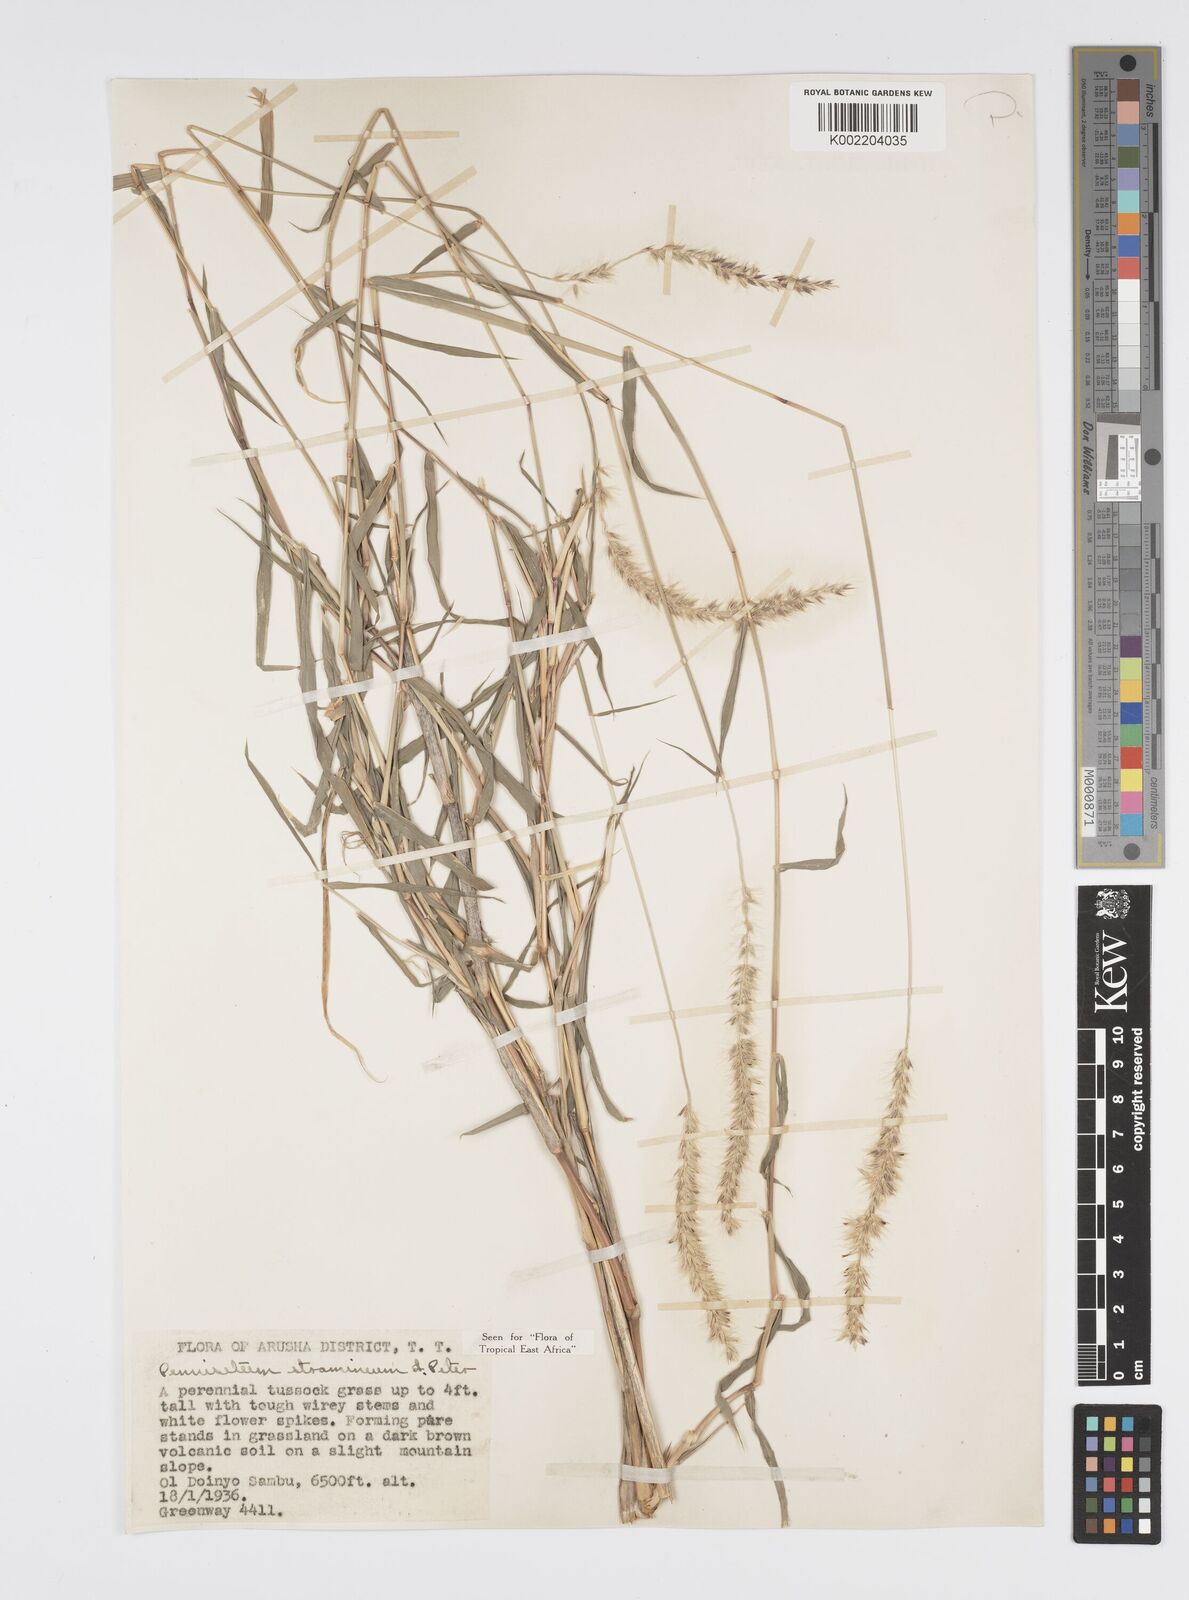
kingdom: Plantae
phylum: Tracheophyta
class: Liliopsida
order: Poales
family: Poaceae
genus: Cenchrus
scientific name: Cenchrus stramineus
